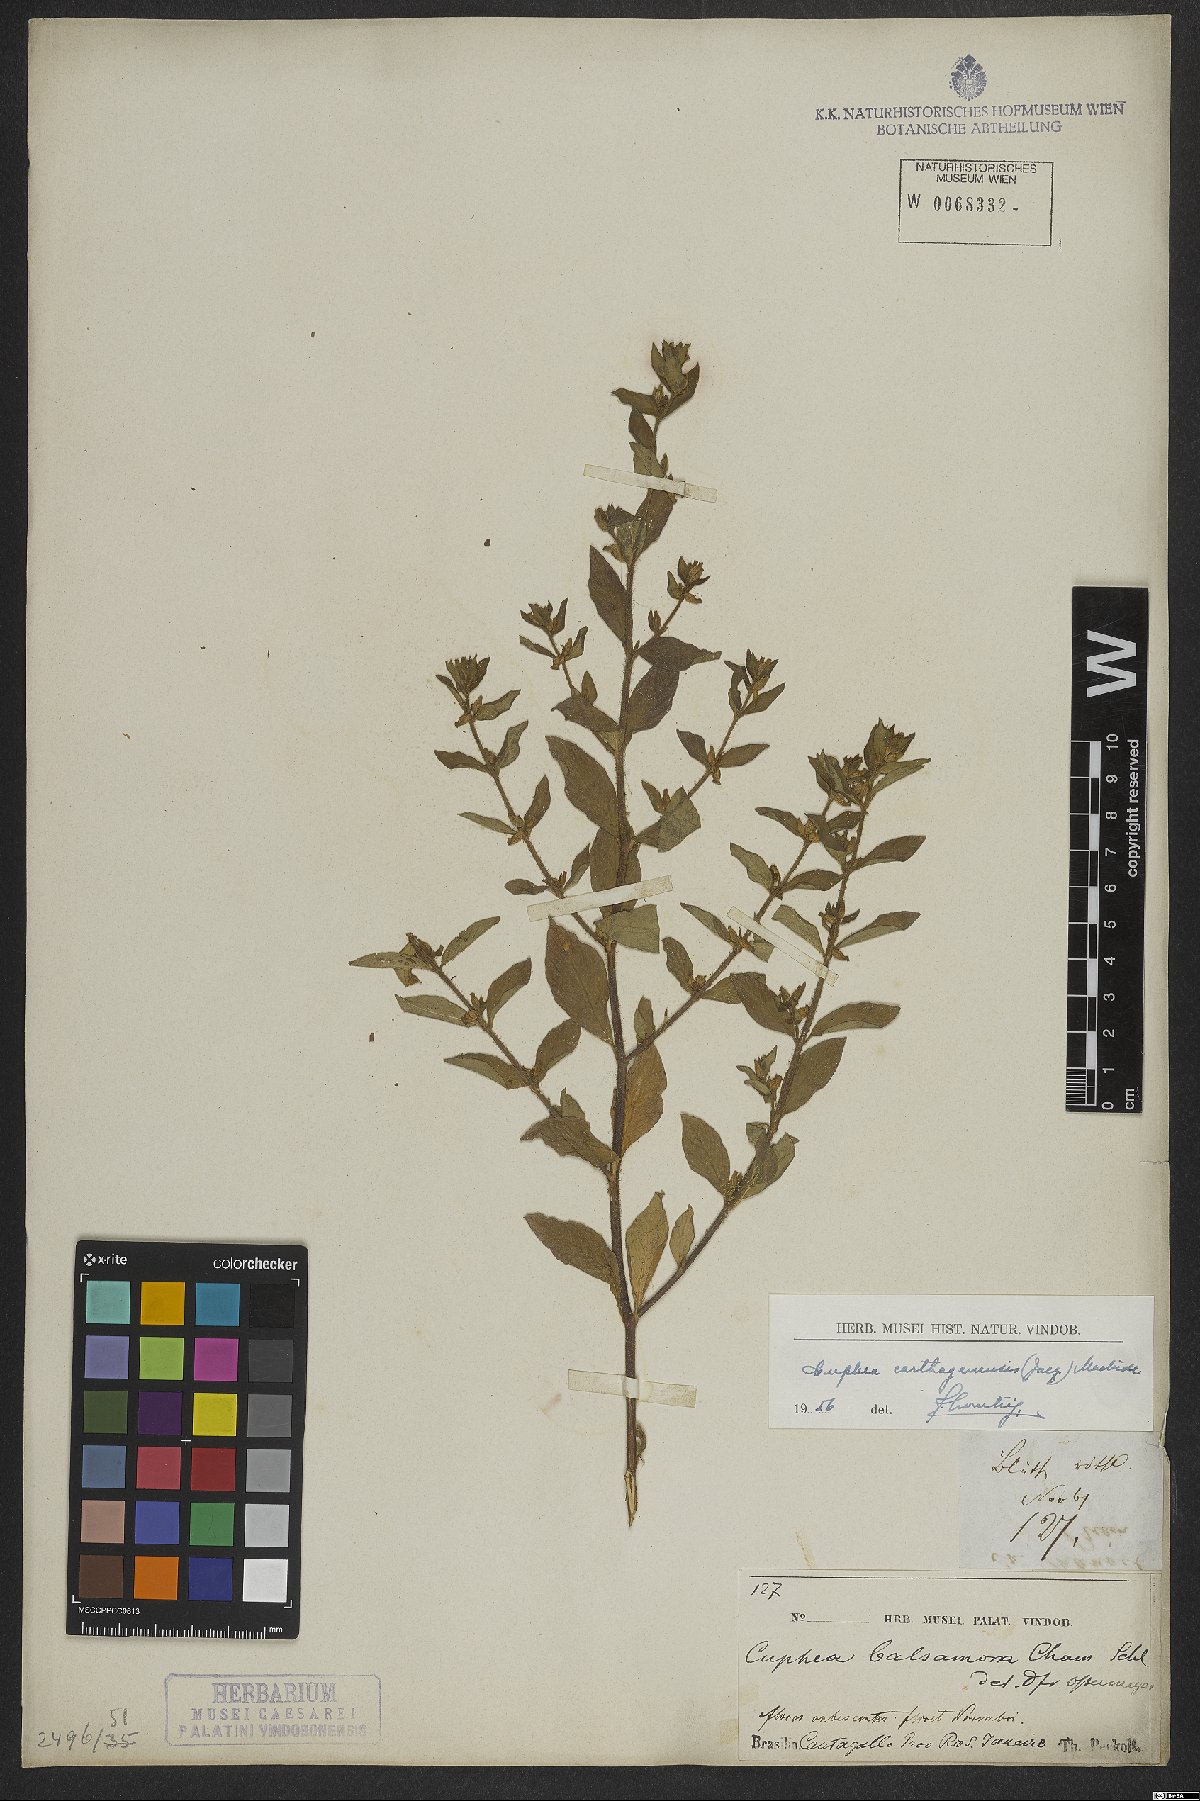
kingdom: Plantae
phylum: Tracheophyta
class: Magnoliopsida
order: Myrtales
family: Lythraceae
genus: Cuphea
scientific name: Cuphea carthagenensis
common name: Colombian waxweed
